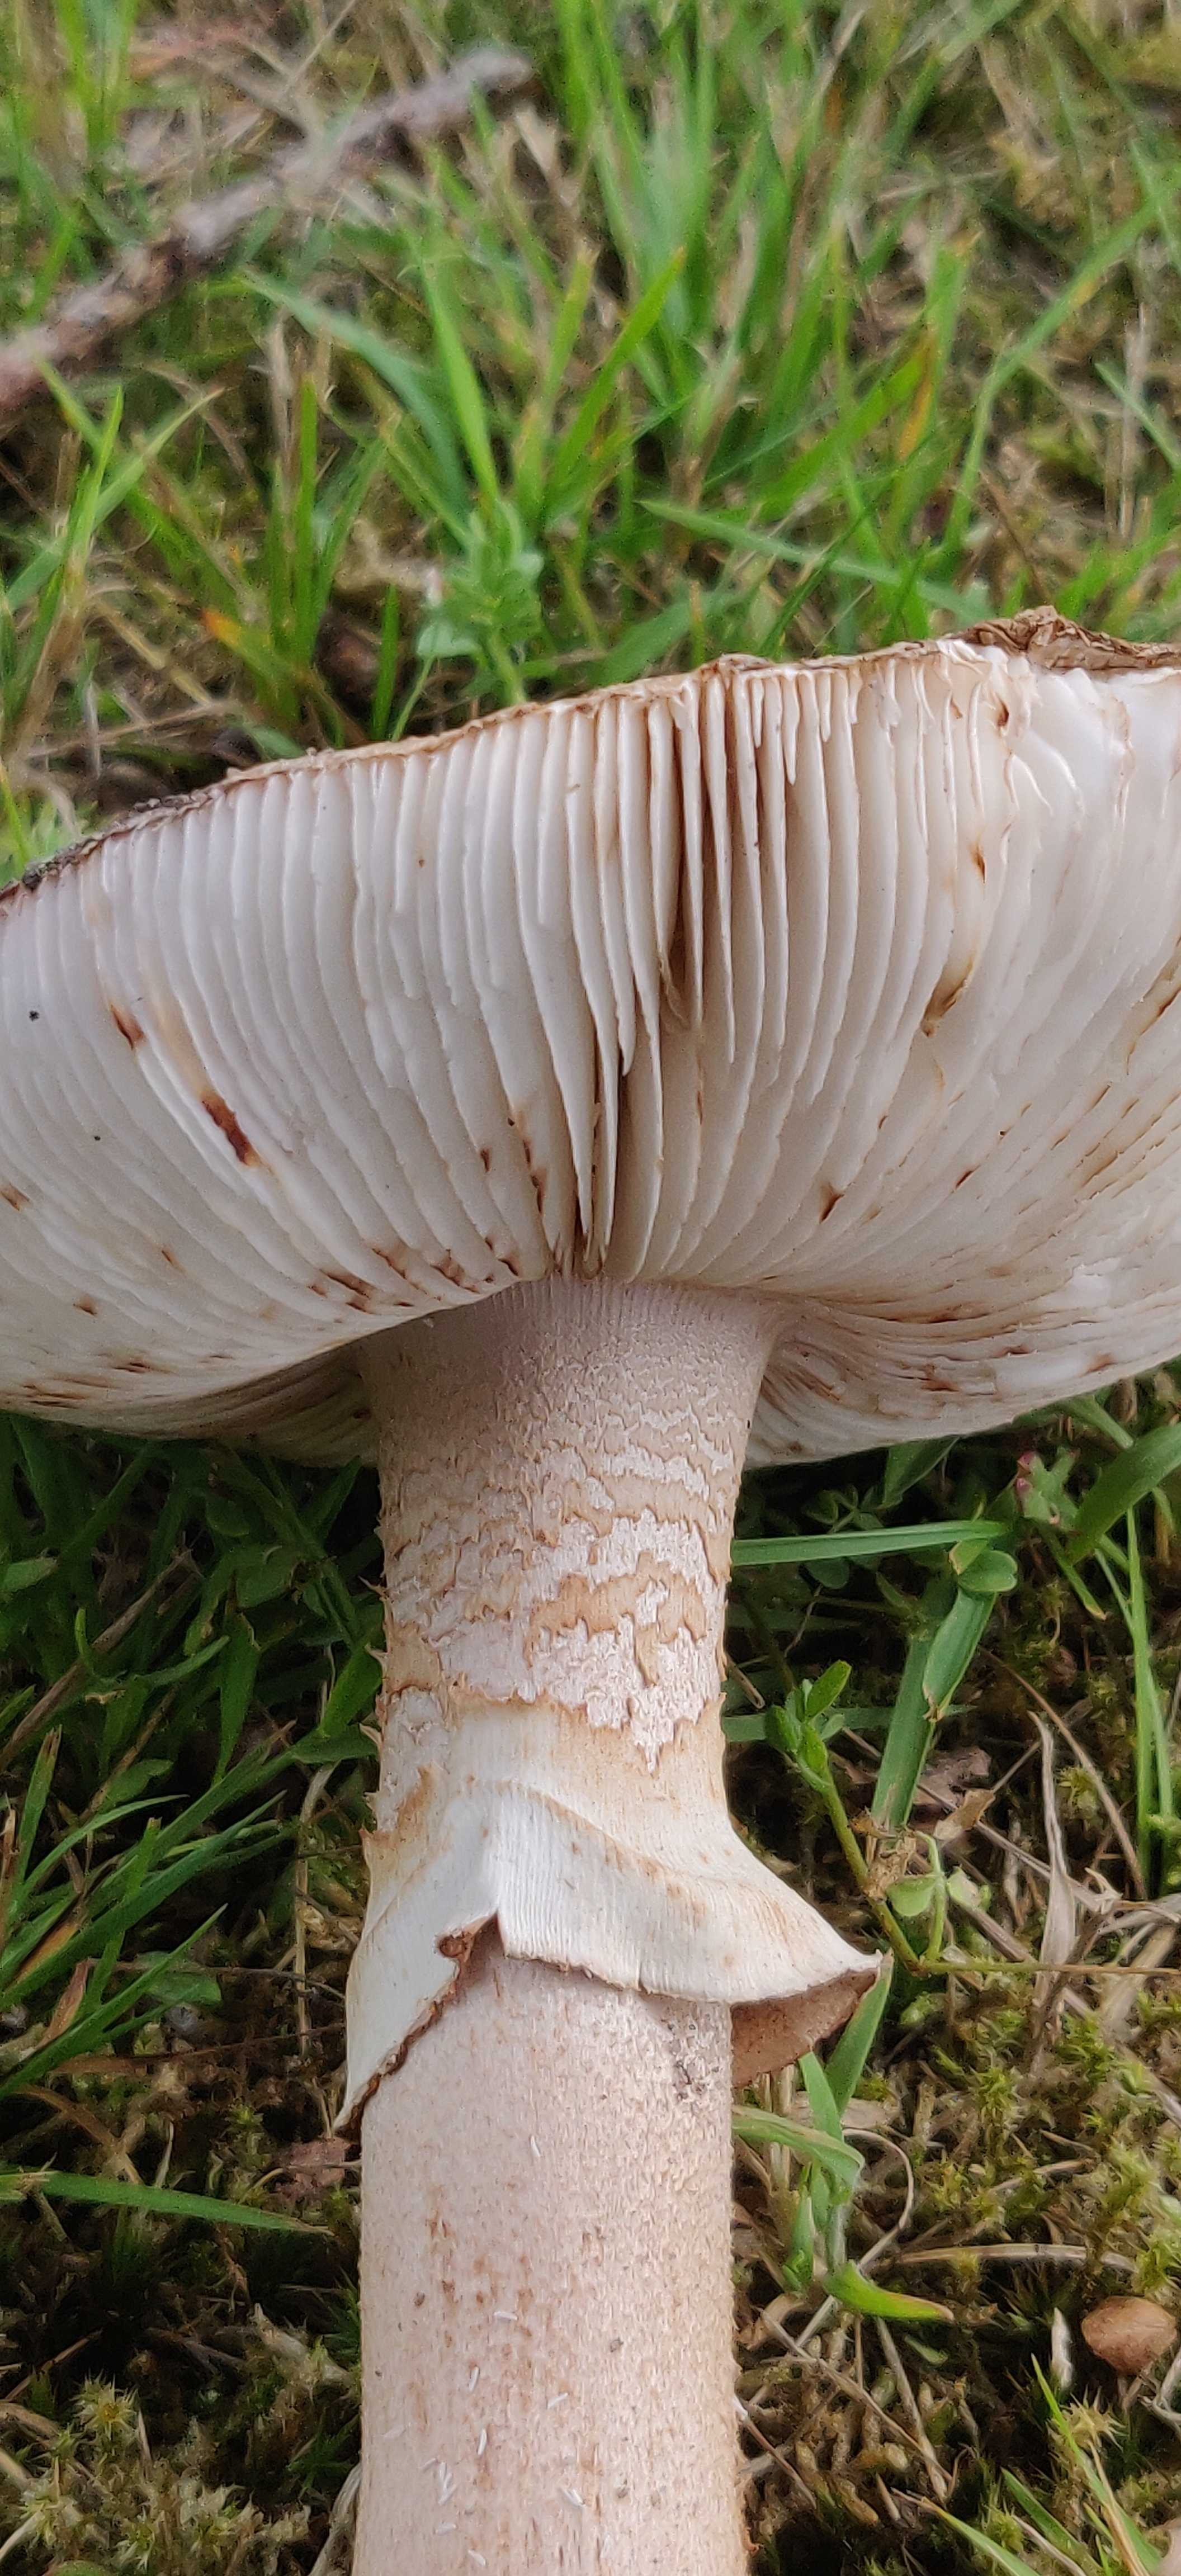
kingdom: Fungi
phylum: Basidiomycota
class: Agaricomycetes
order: Agaricales
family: Amanitaceae
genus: Amanita
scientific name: Amanita rubescens
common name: rødmende fluesvamp
